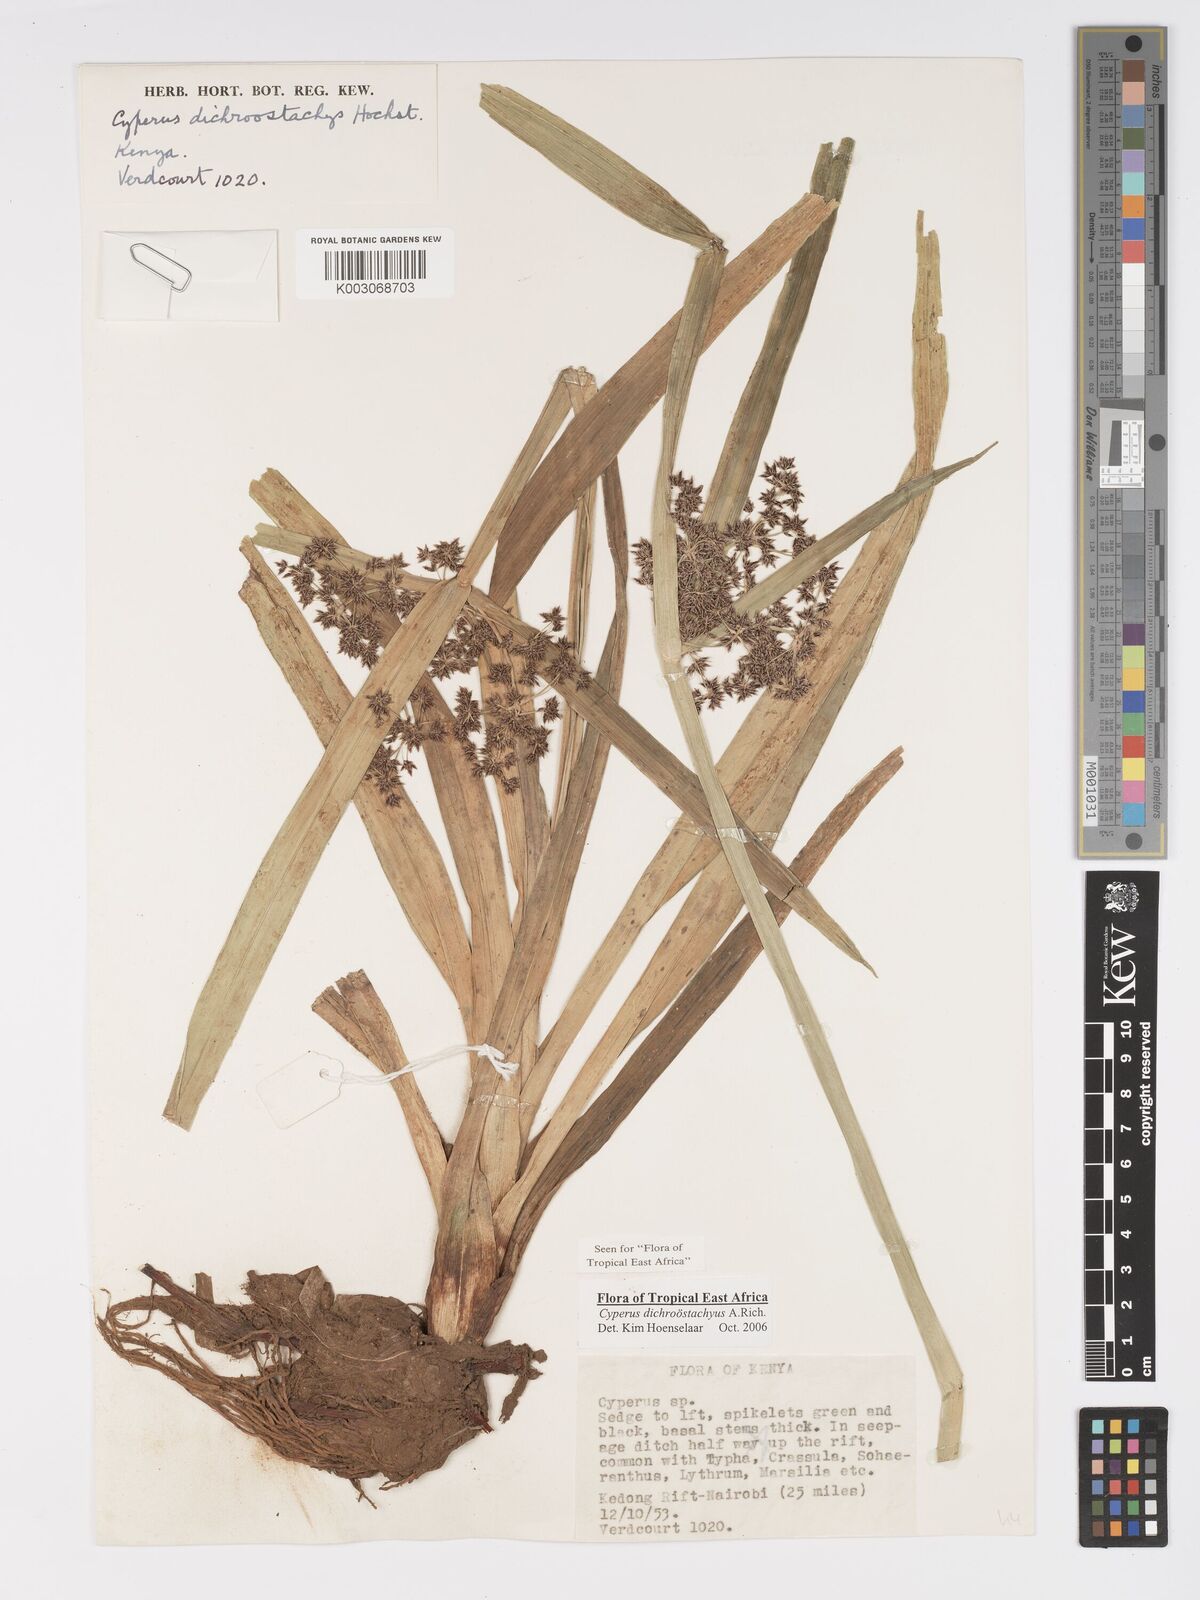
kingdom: Plantae
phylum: Tracheophyta
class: Liliopsida
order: Poales
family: Cyperaceae
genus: Cyperus
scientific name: Cyperus dichrostachyus
